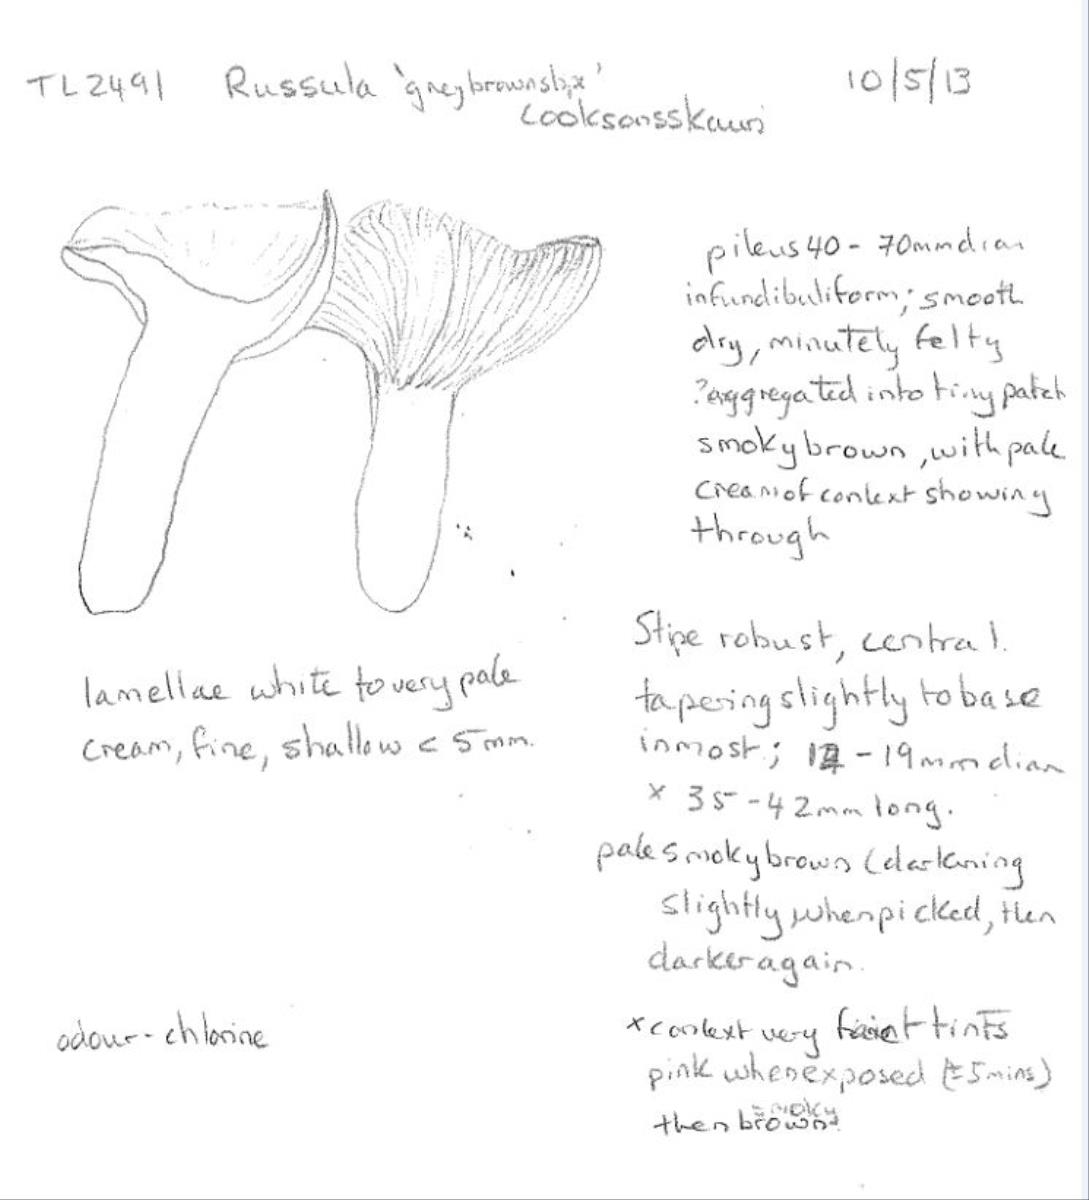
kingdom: Fungi
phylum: Basidiomycota
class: Agaricomycetes
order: Russulales
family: Russulaceae
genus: Russula
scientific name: Russula
